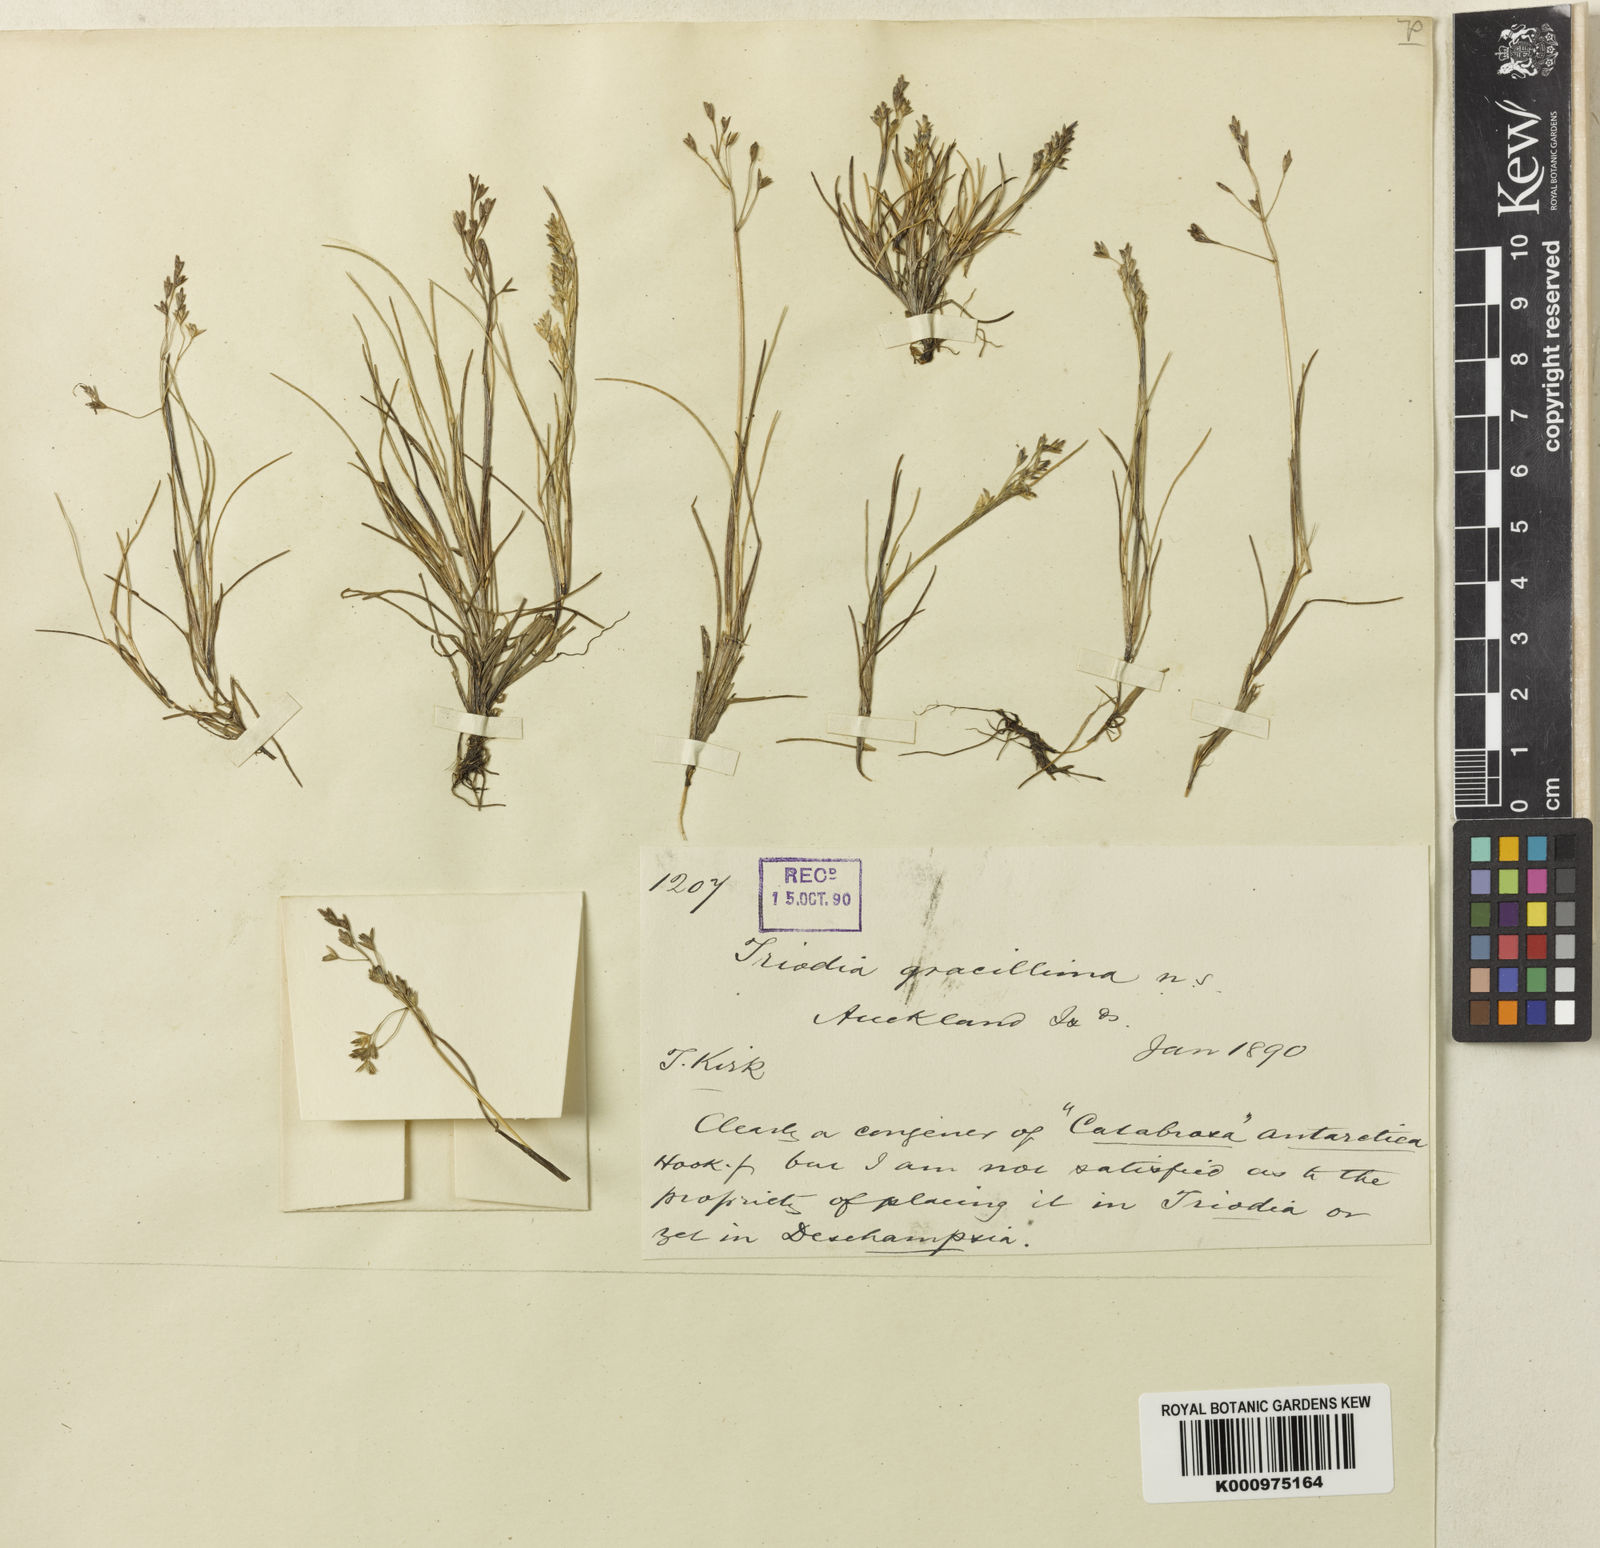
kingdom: Plantae
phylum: Tracheophyta
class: Liliopsida
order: Poales
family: Poaceae
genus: Deschampsia
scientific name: Deschampsia gracillima
